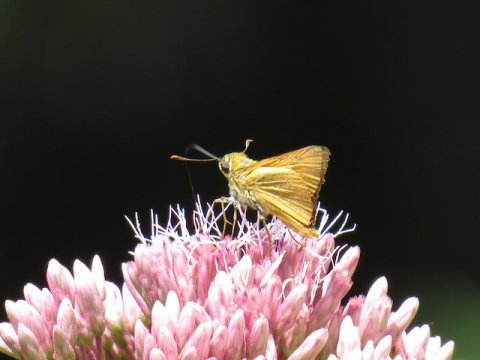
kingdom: Animalia
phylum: Arthropoda
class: Insecta
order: Lepidoptera
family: Hesperiidae
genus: Atrytone
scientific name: Atrytone delaware
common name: Delaware Skipper
